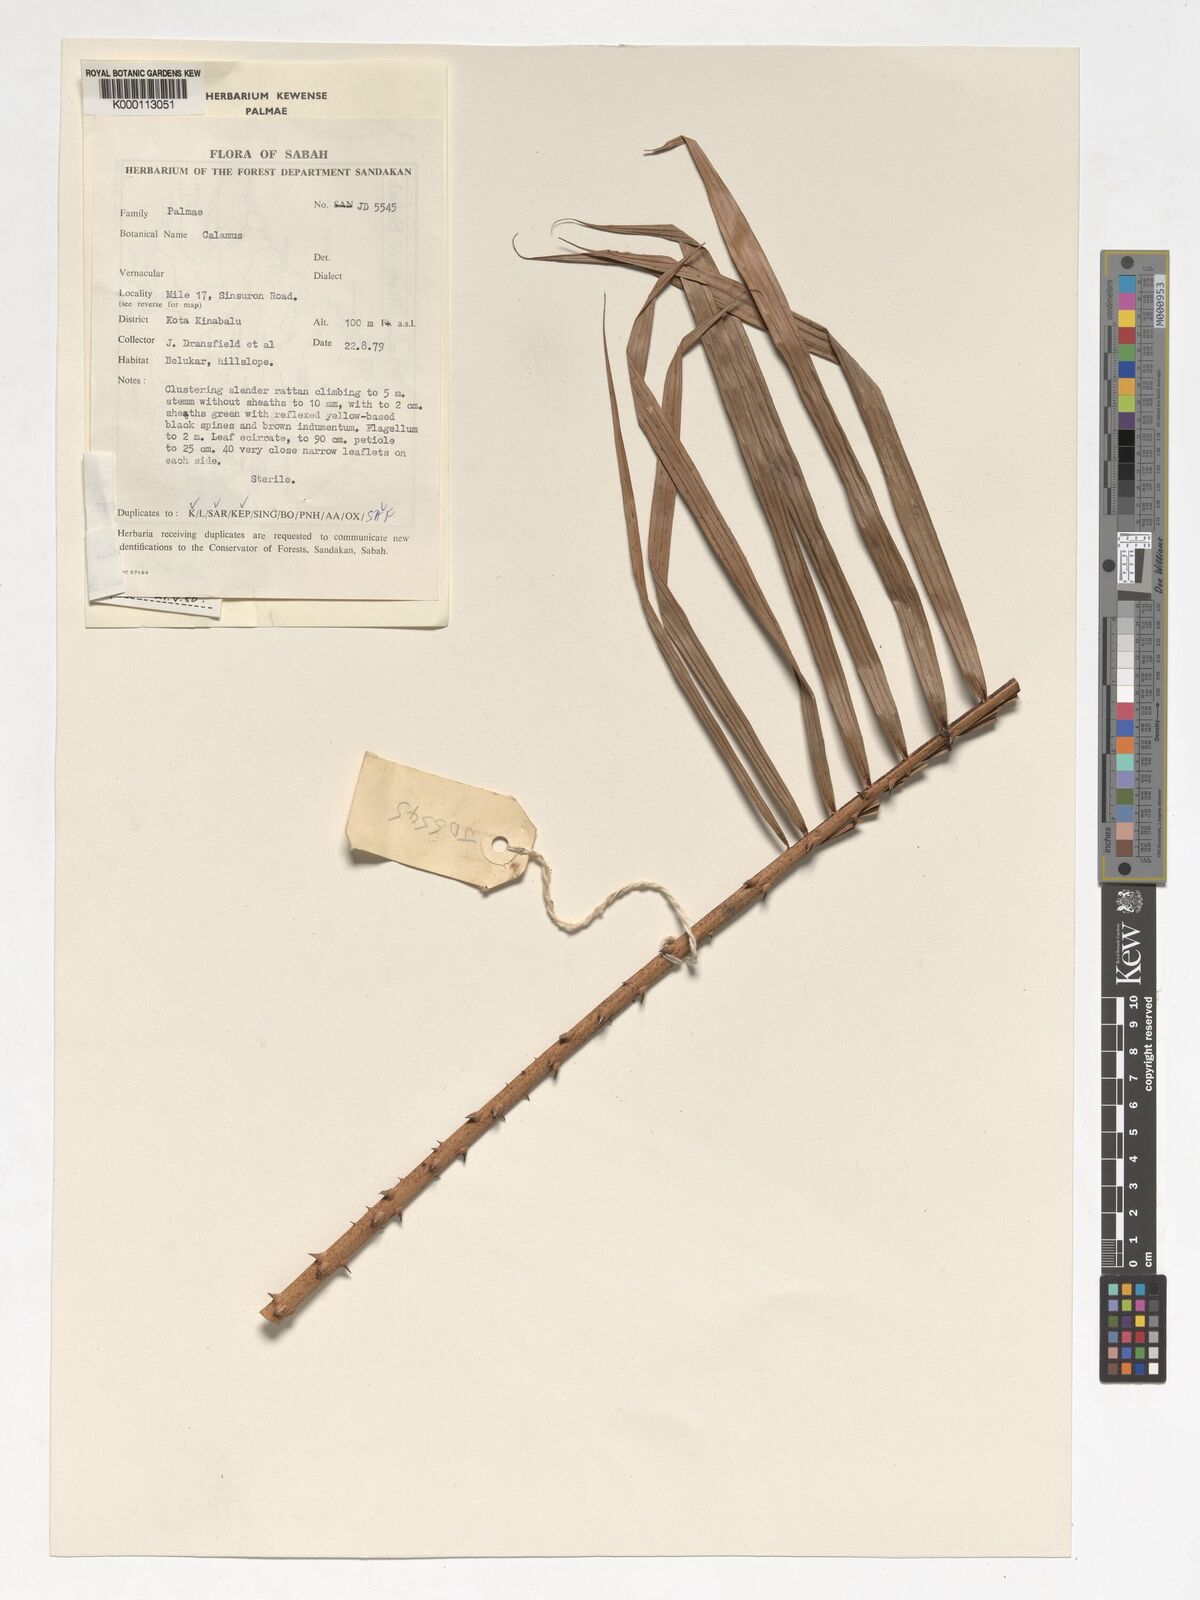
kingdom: Plantae
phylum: Tracheophyta
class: Liliopsida
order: Arecales
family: Arecaceae
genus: Calamus
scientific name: Calamus comptus
